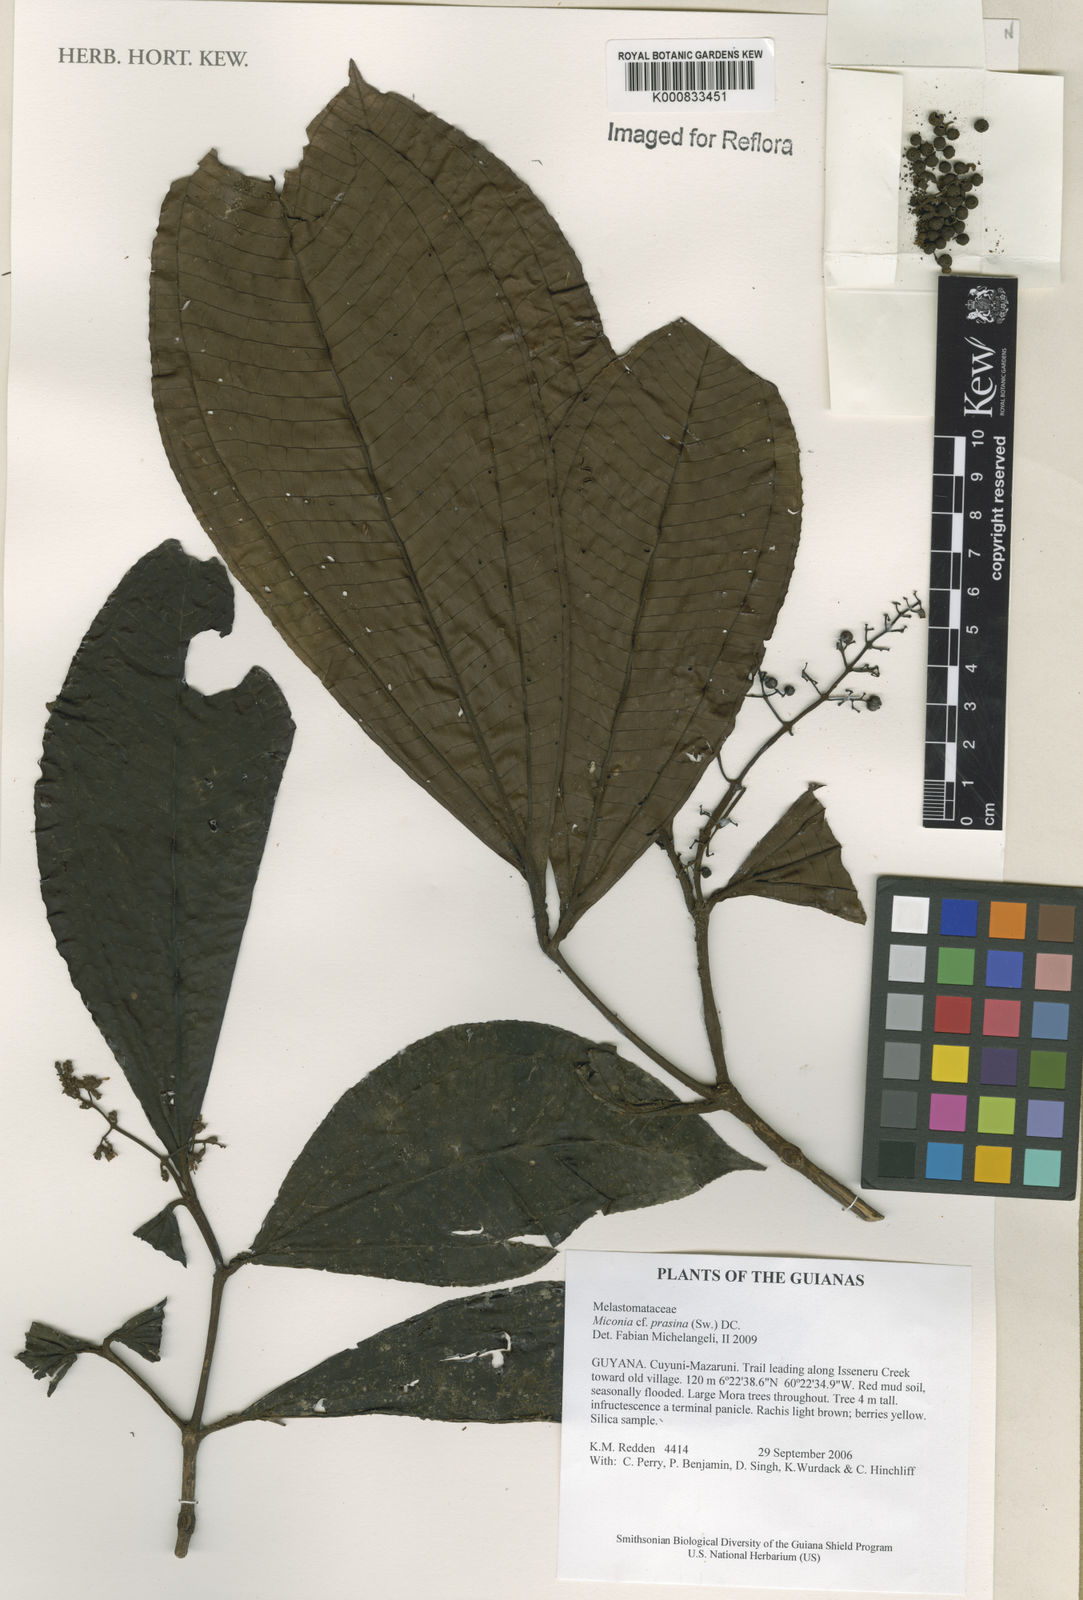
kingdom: Plantae
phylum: Tracheophyta
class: Magnoliopsida
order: Myrtales
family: Melastomataceae
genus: Miconia
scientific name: Miconia prasina
